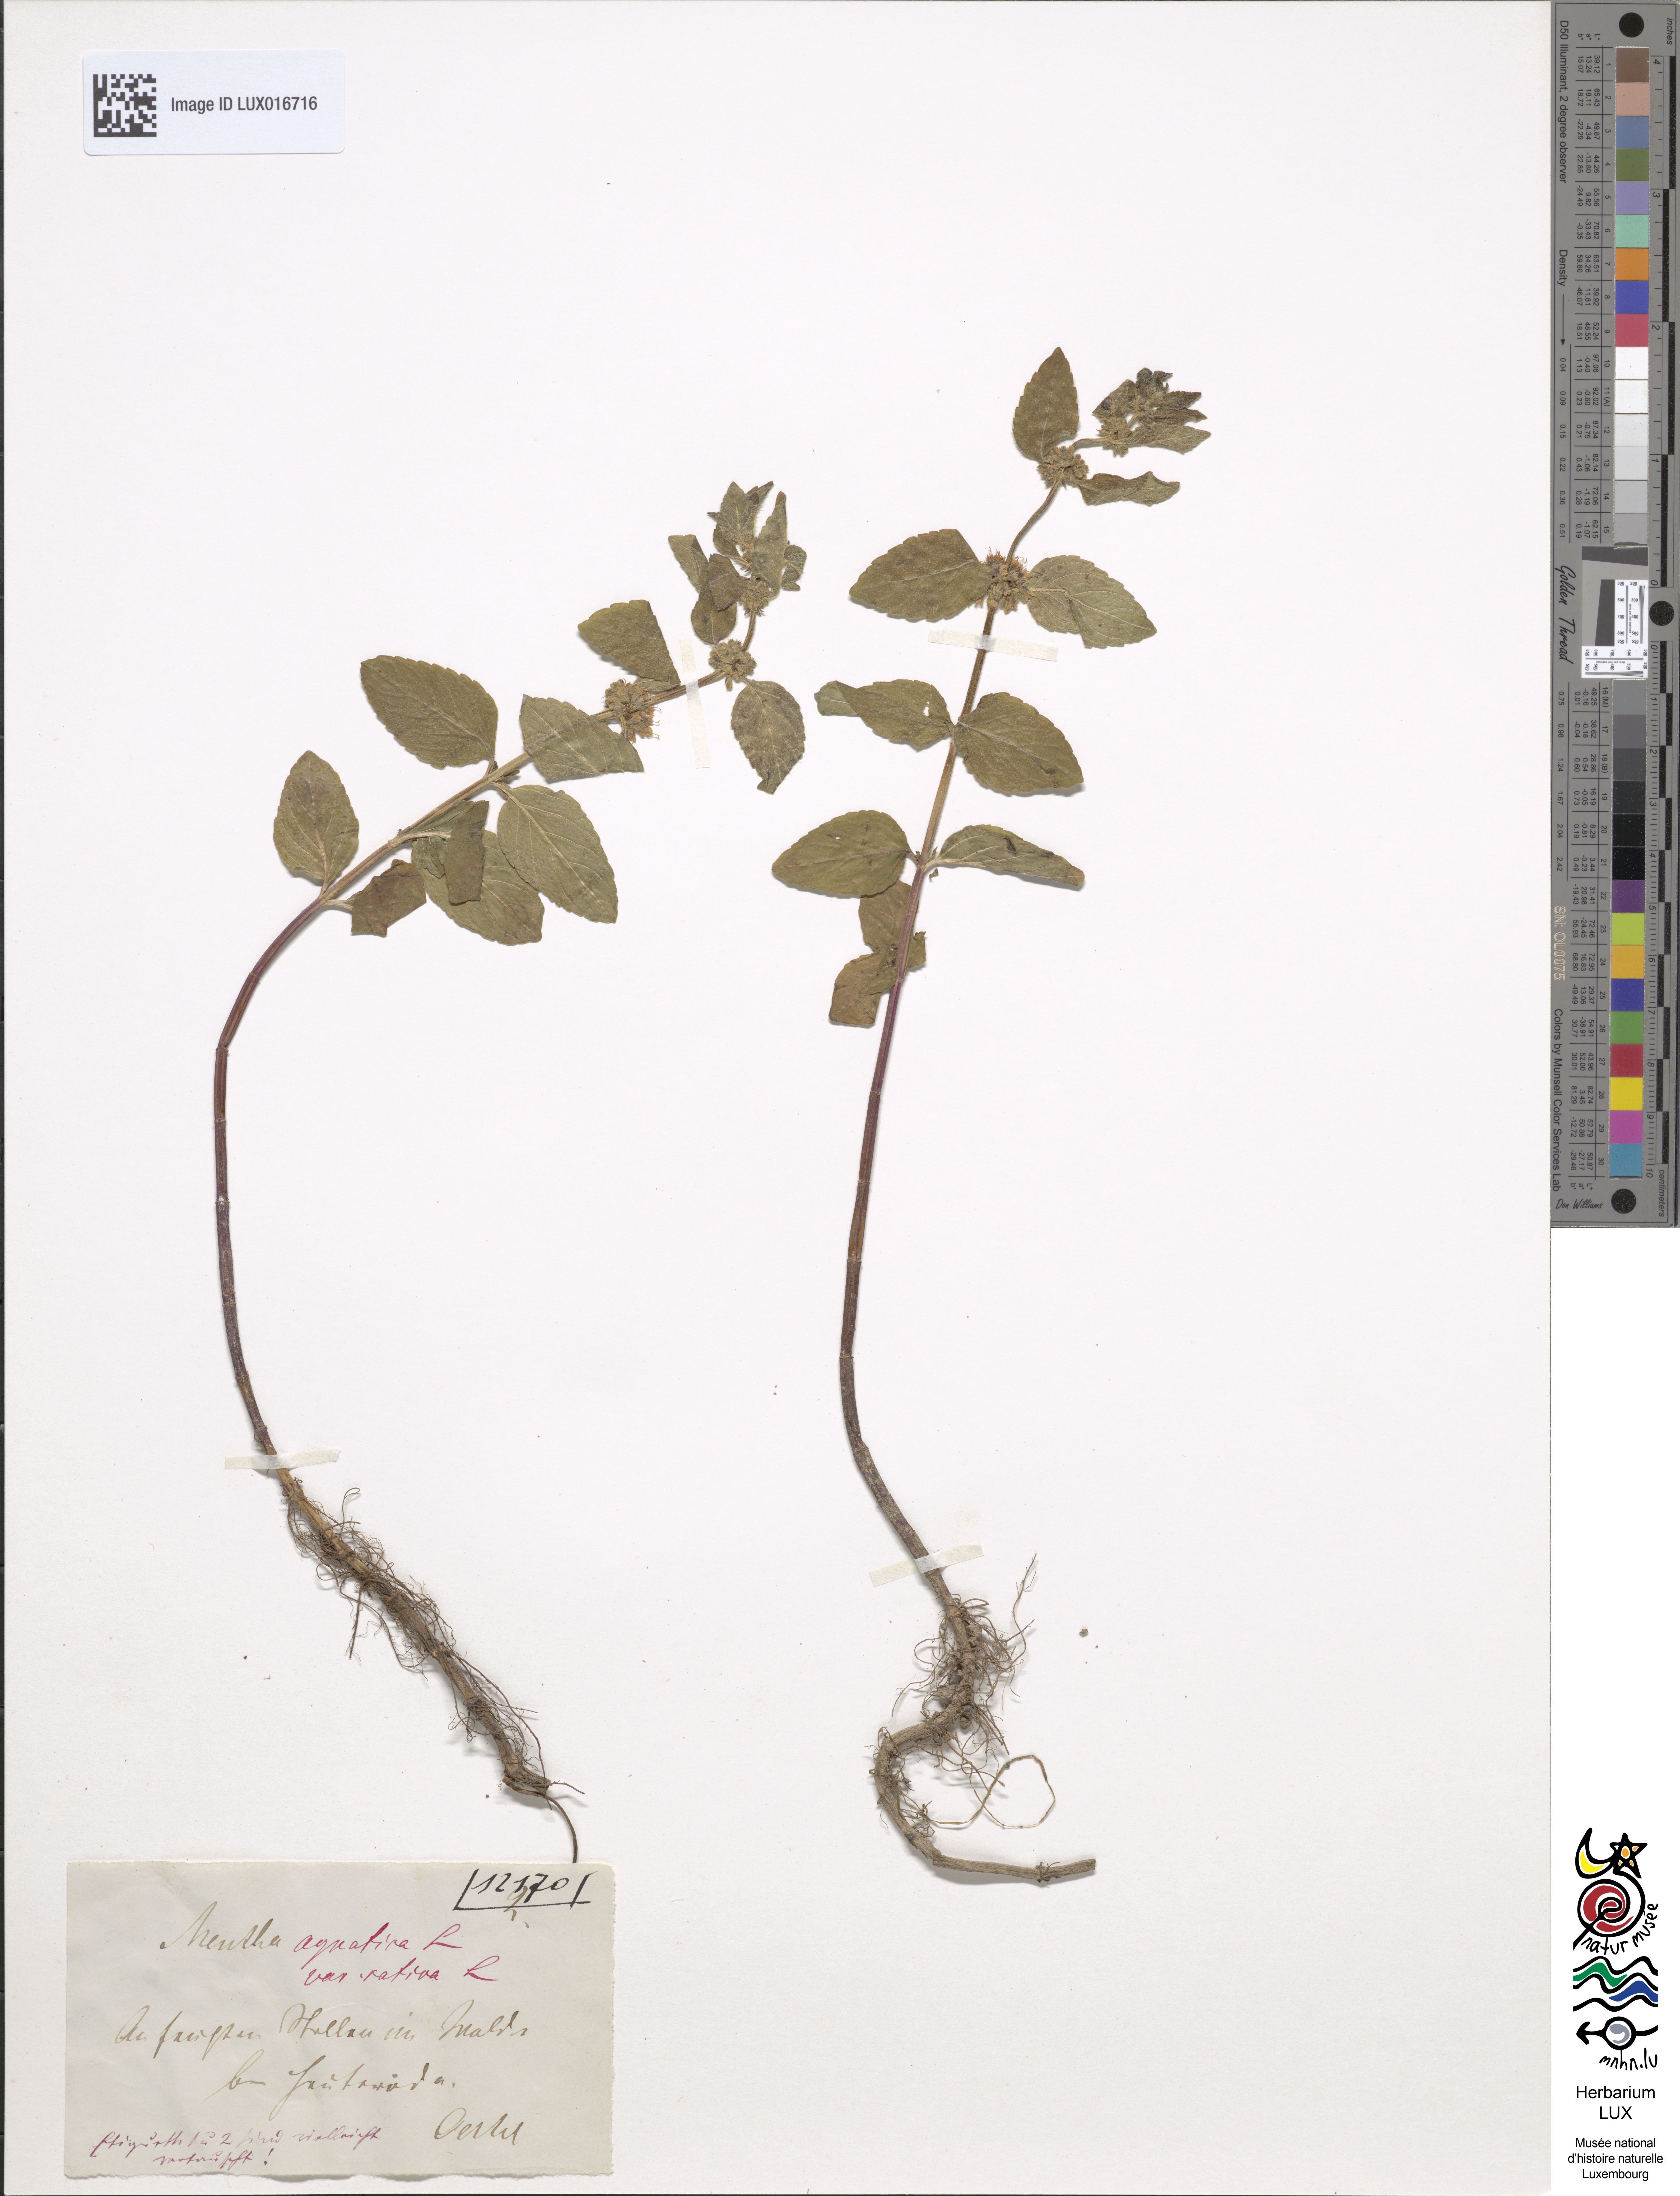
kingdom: Plantae
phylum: Tracheophyta
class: Magnoliopsida
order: Lamiales
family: Lamiaceae
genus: Mentha
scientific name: Mentha aquatica
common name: Water mint
